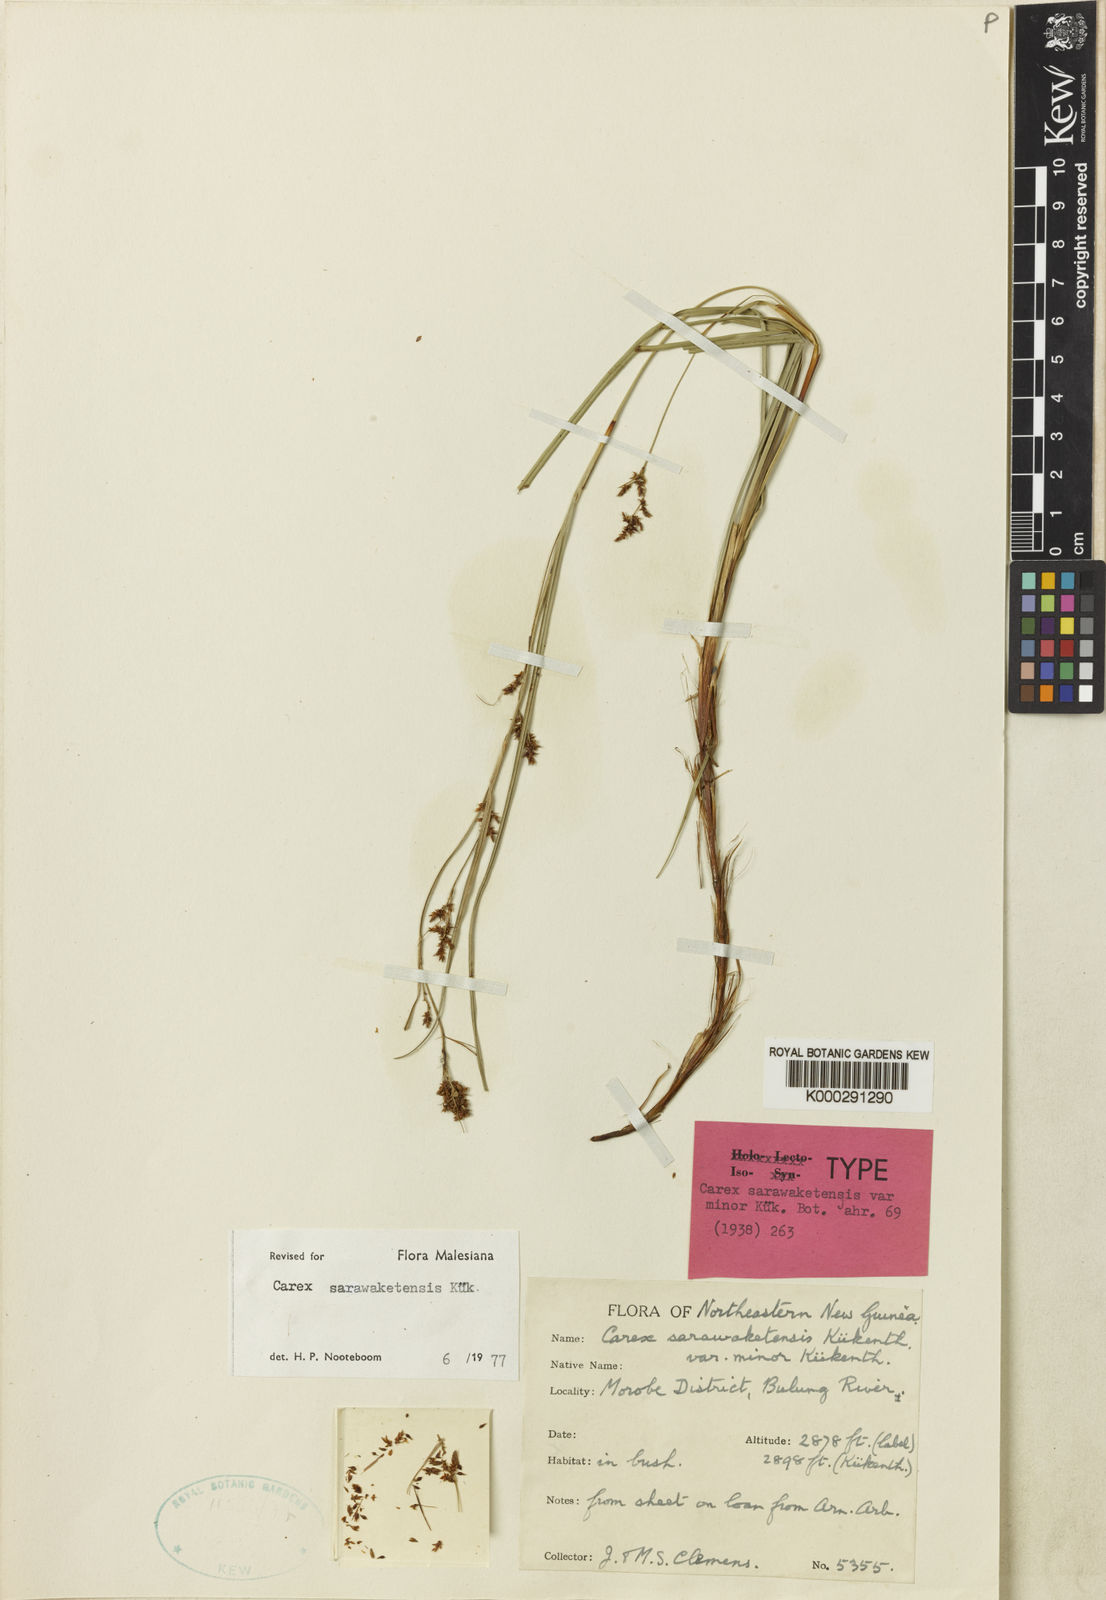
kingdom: Plantae
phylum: Tracheophyta
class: Liliopsida
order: Poales
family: Cyperaceae
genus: Carex
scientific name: Carex
